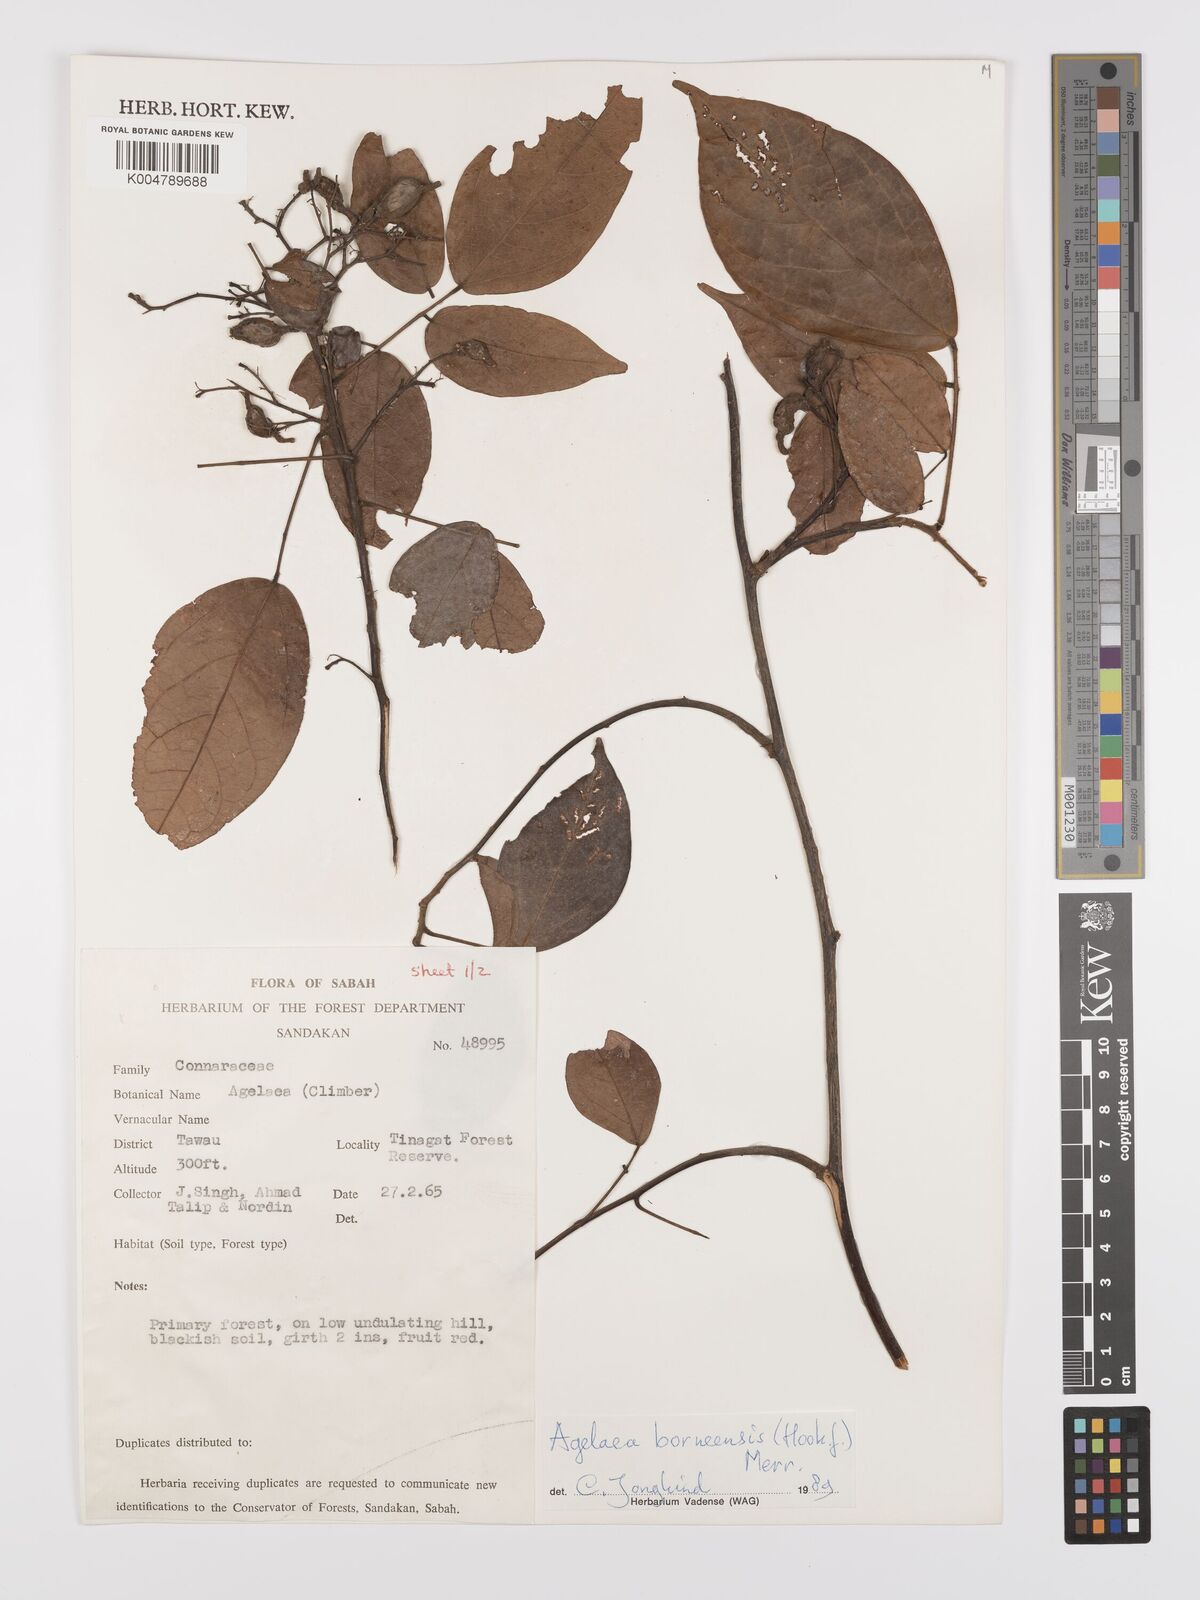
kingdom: Plantae
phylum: Tracheophyta
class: Magnoliopsida
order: Oxalidales
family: Connaraceae
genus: Agelaea
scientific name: Agelaea borneensis
